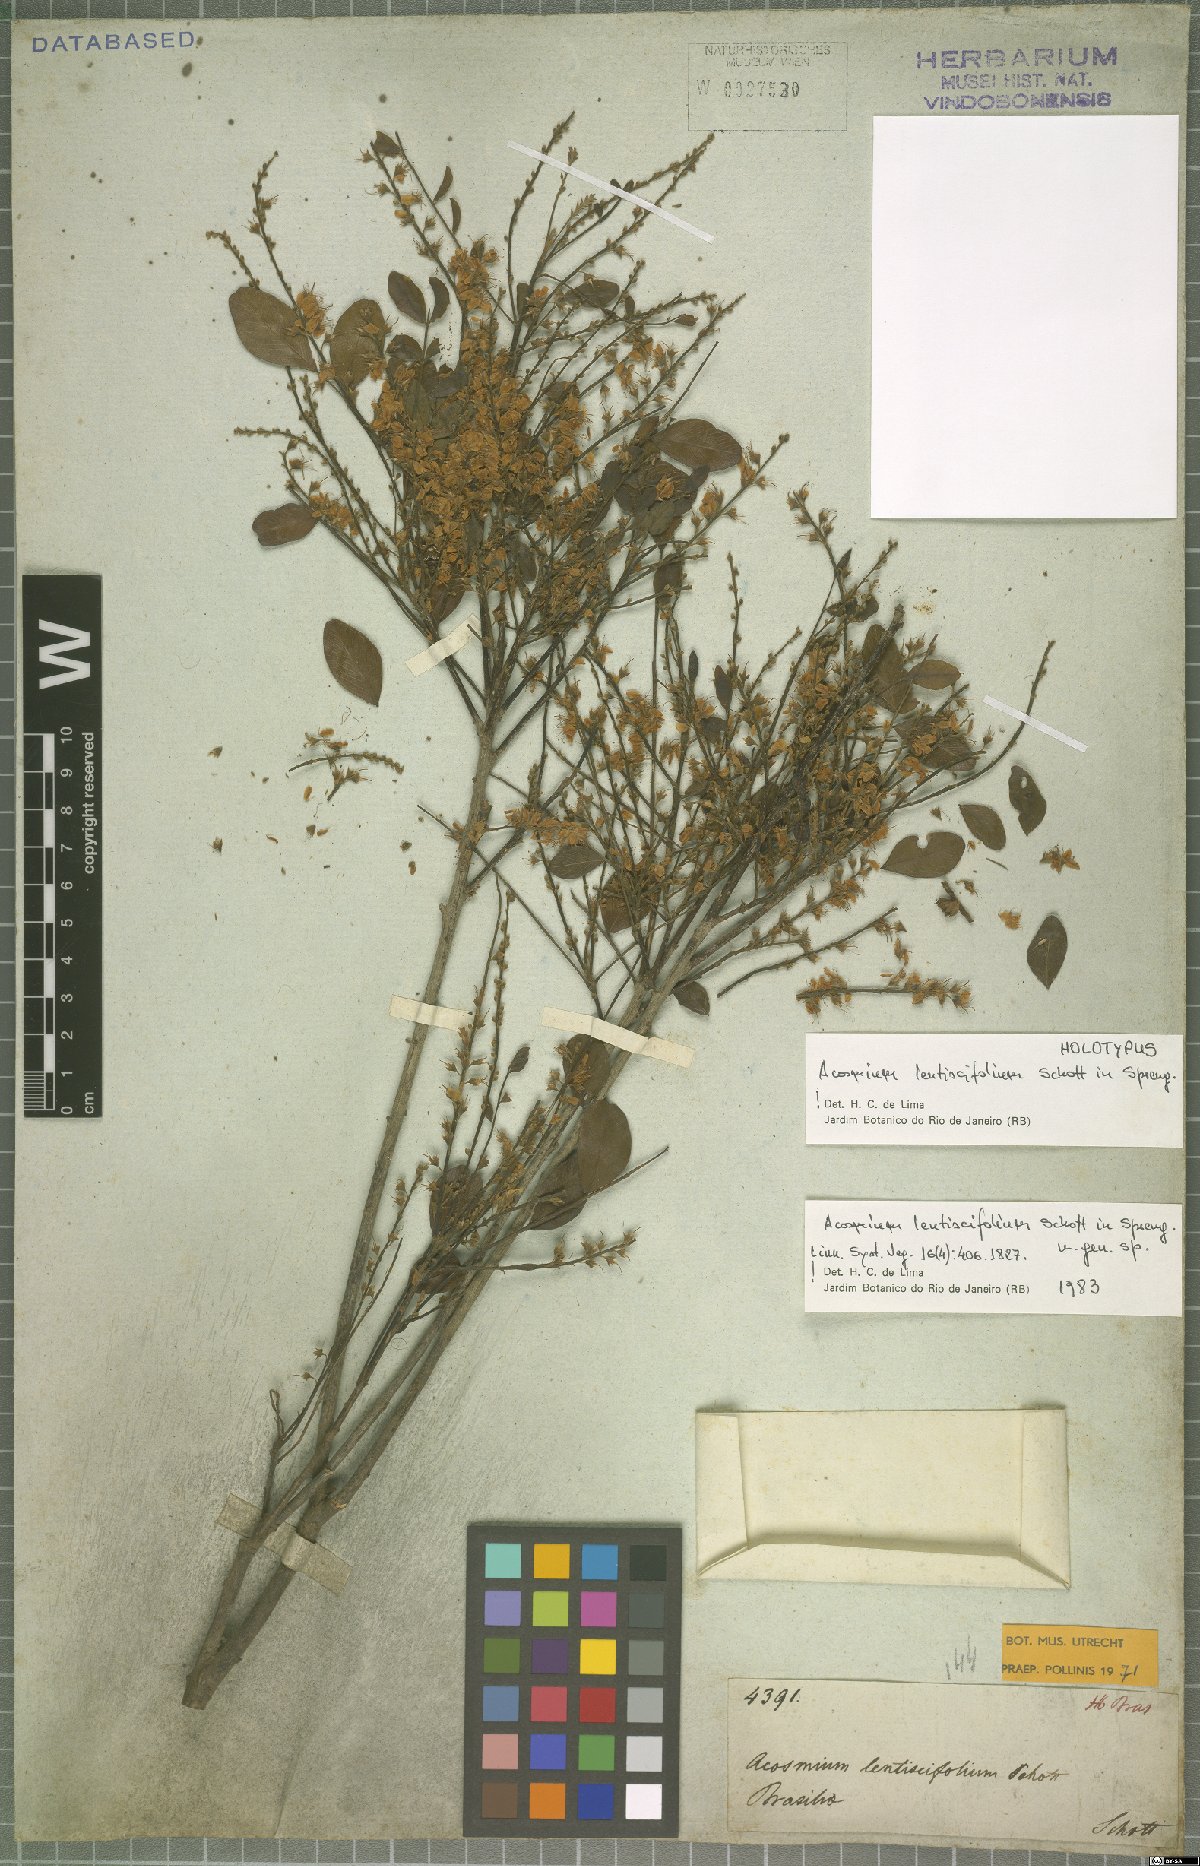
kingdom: Plantae
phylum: Tracheophyta
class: Magnoliopsida
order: Fabales
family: Fabaceae
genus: Acosmium
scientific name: Acosmium lentiscifolium
